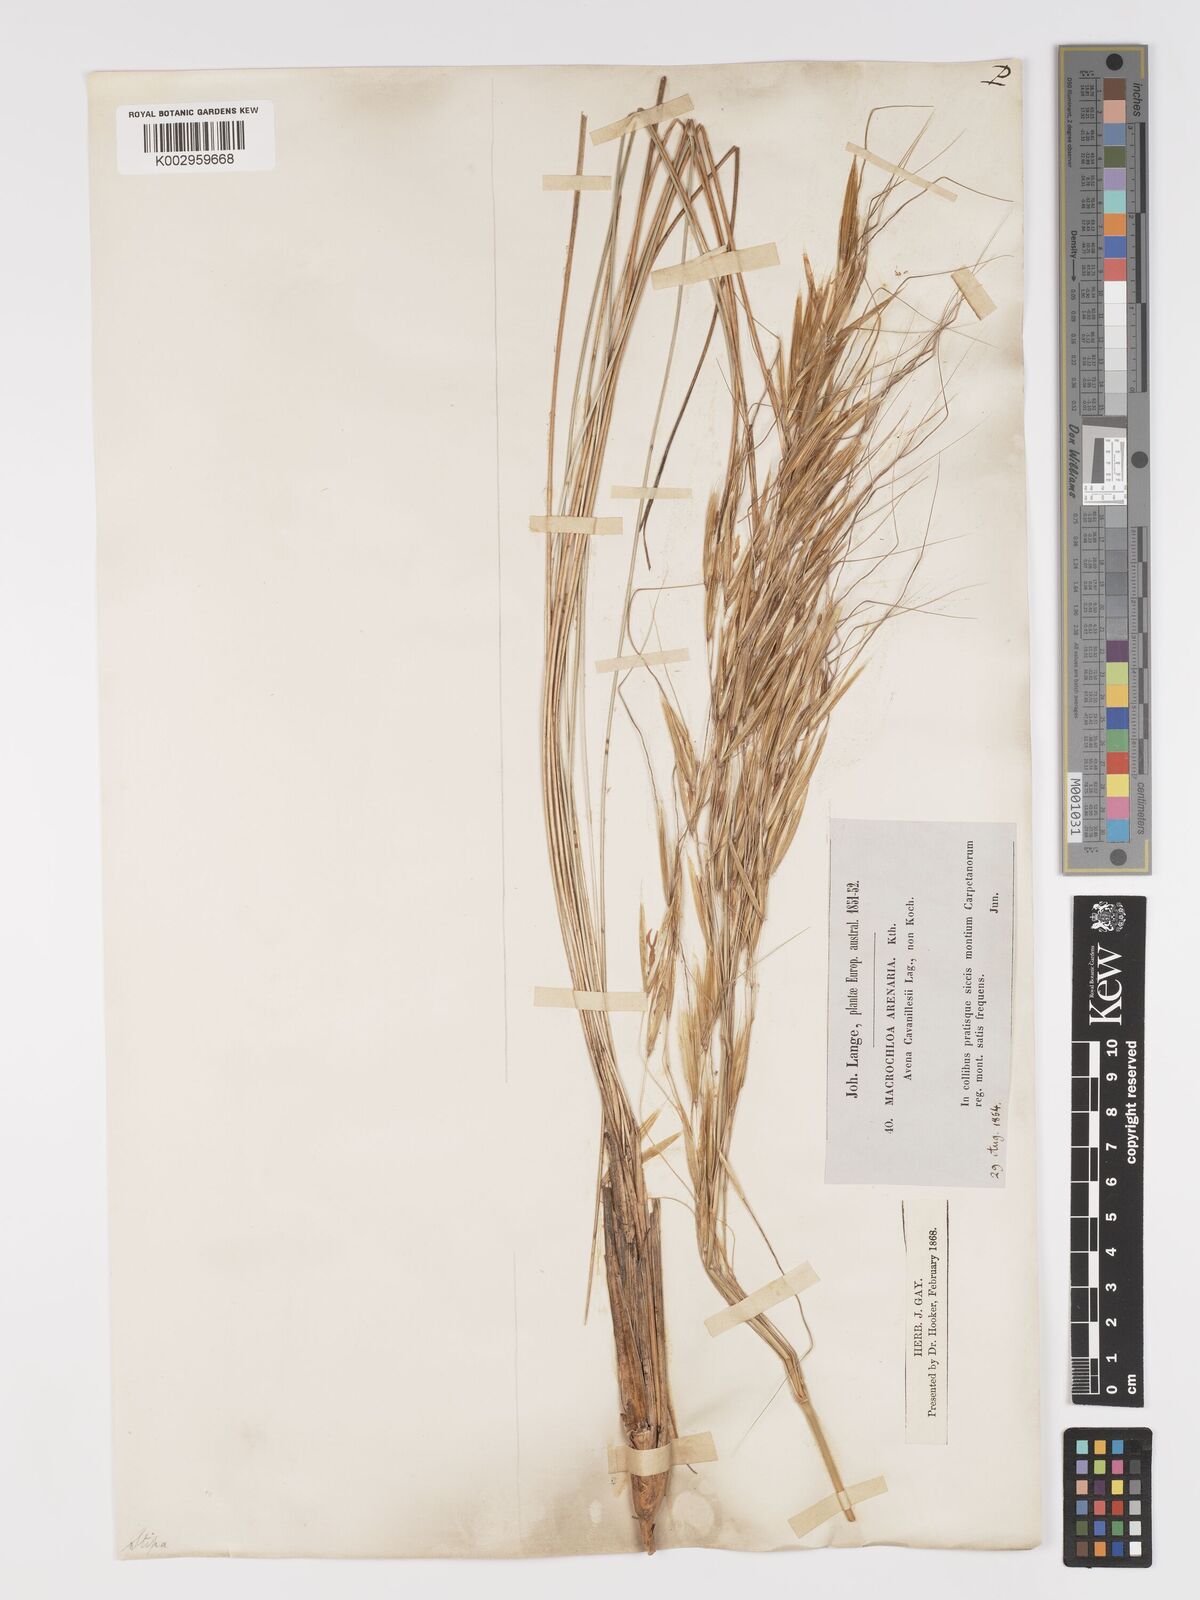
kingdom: Plantae
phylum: Tracheophyta
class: Liliopsida
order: Poales
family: Poaceae
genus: Celtica
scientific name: Celtica gigantea
